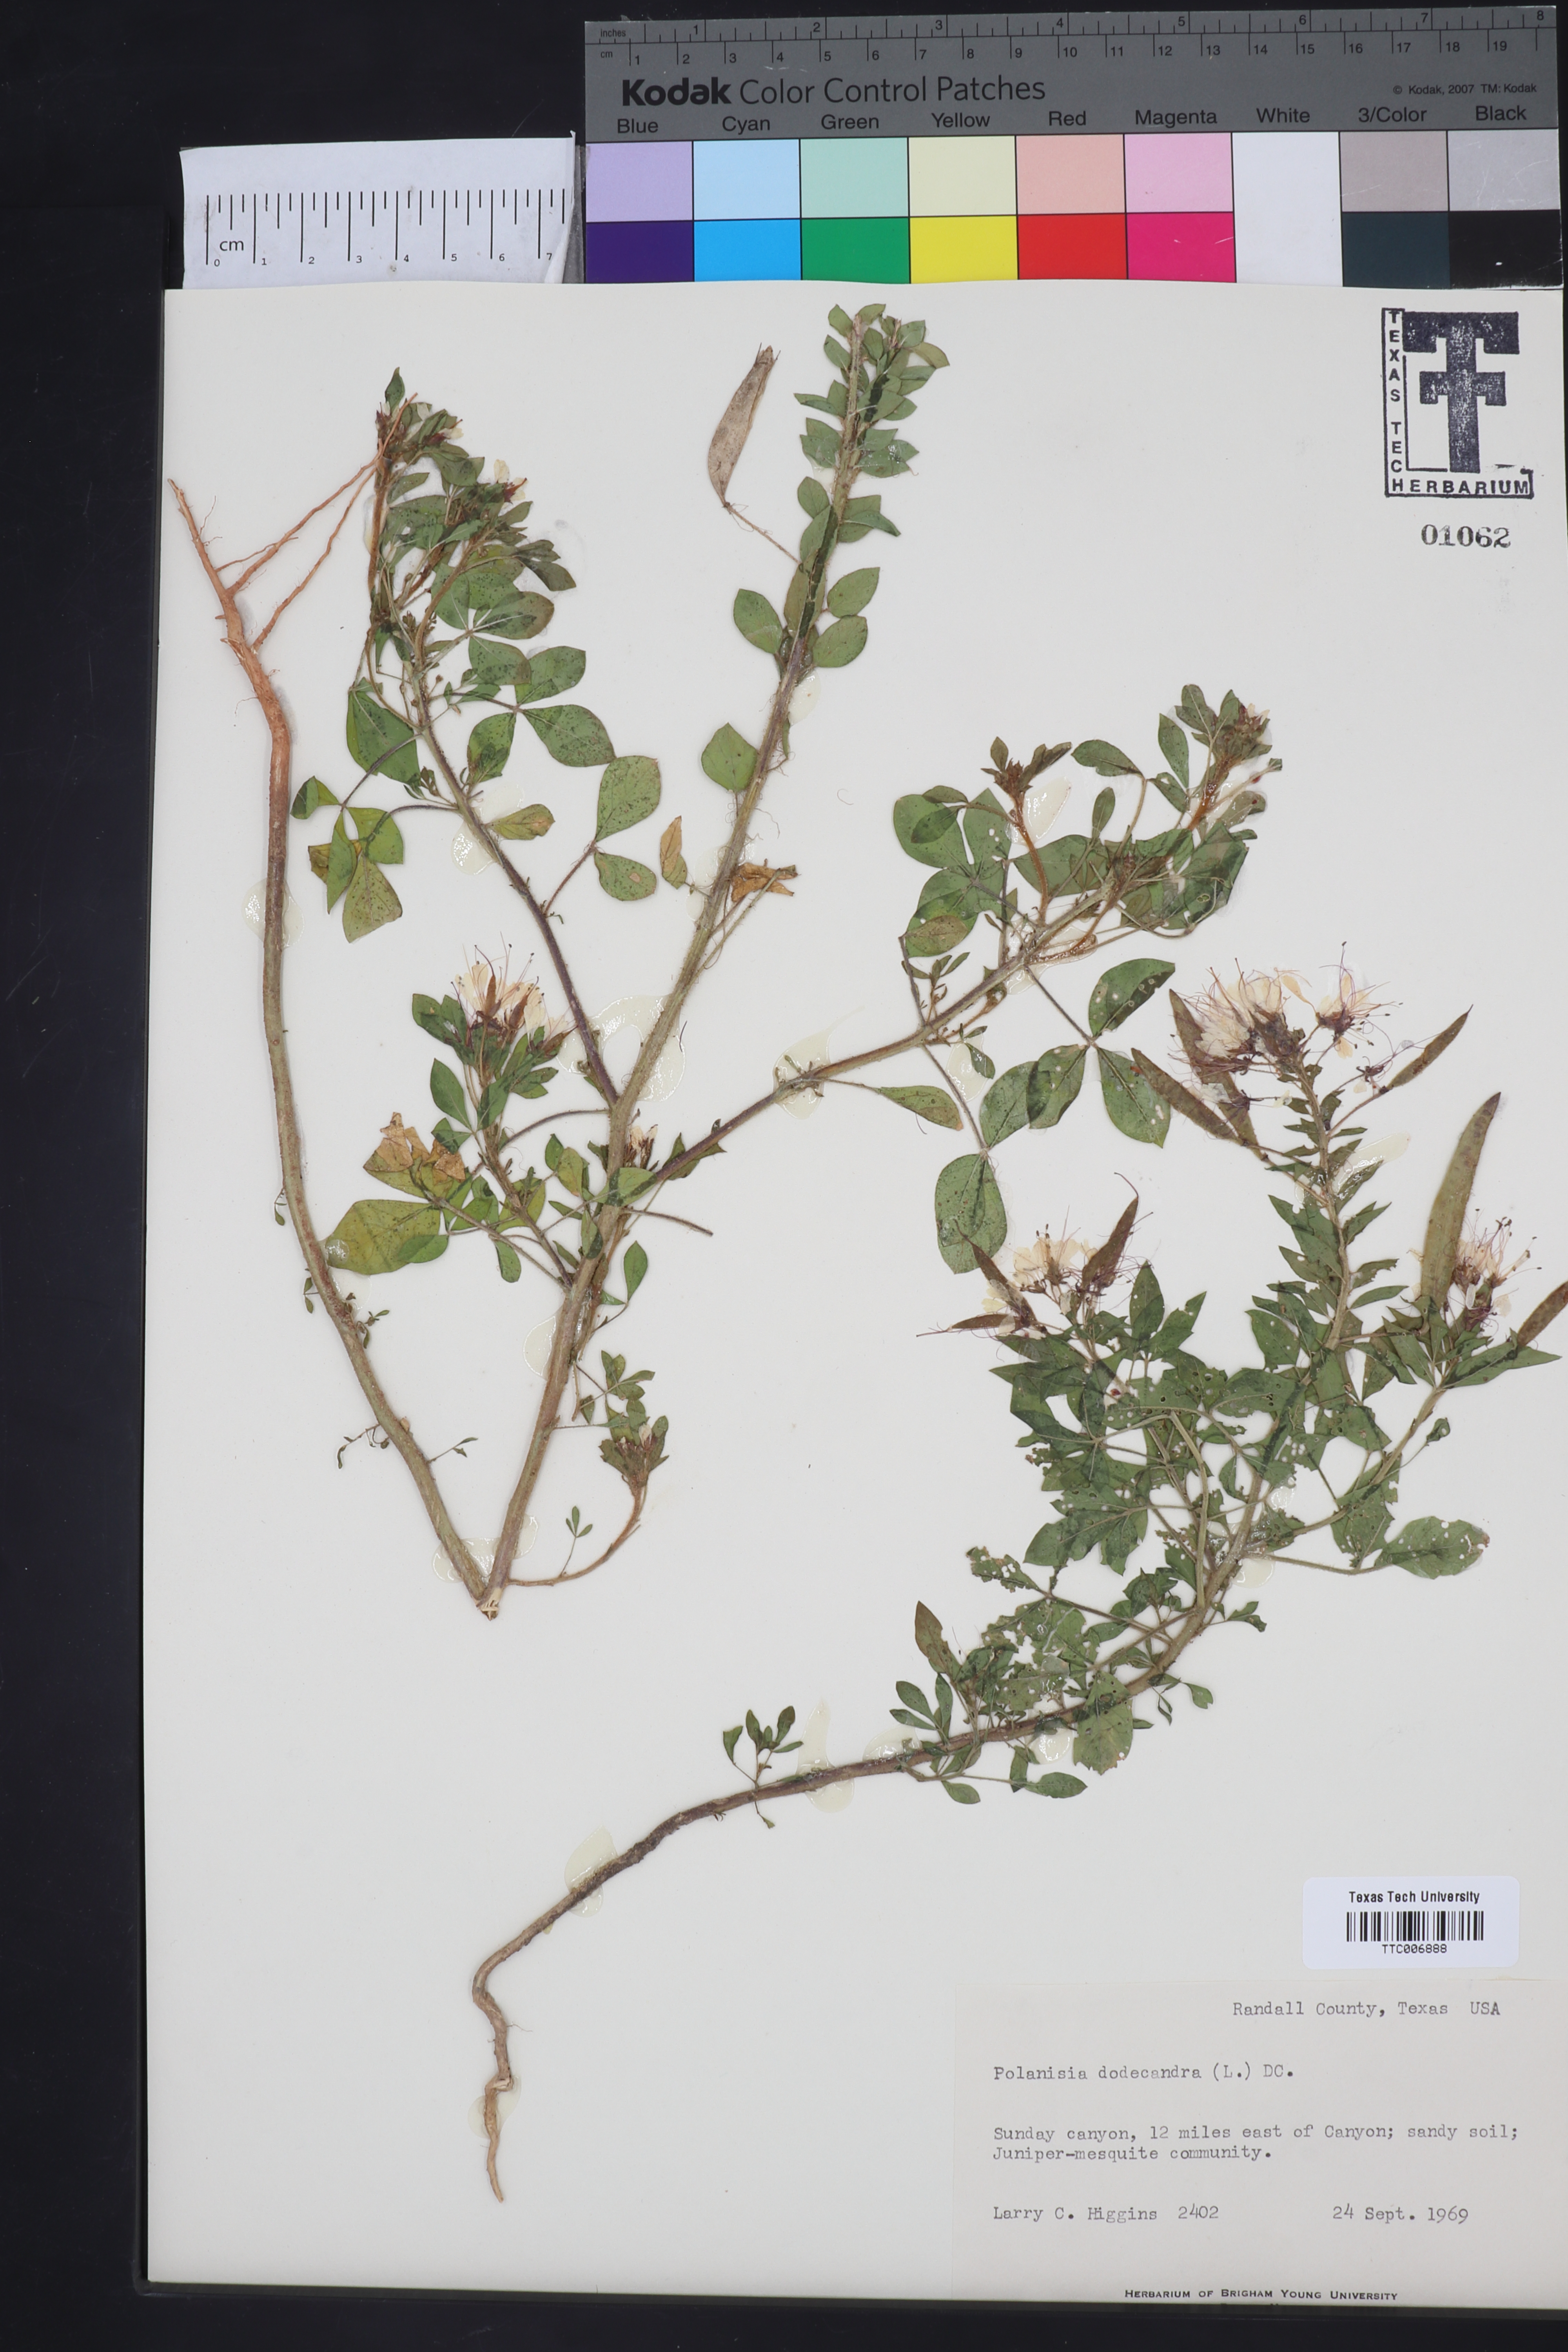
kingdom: Plantae
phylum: Tracheophyta
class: Magnoliopsida
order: Brassicales
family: Cleomaceae
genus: Polanisia
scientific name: Polanisia dodecandra
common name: Clammyweed
